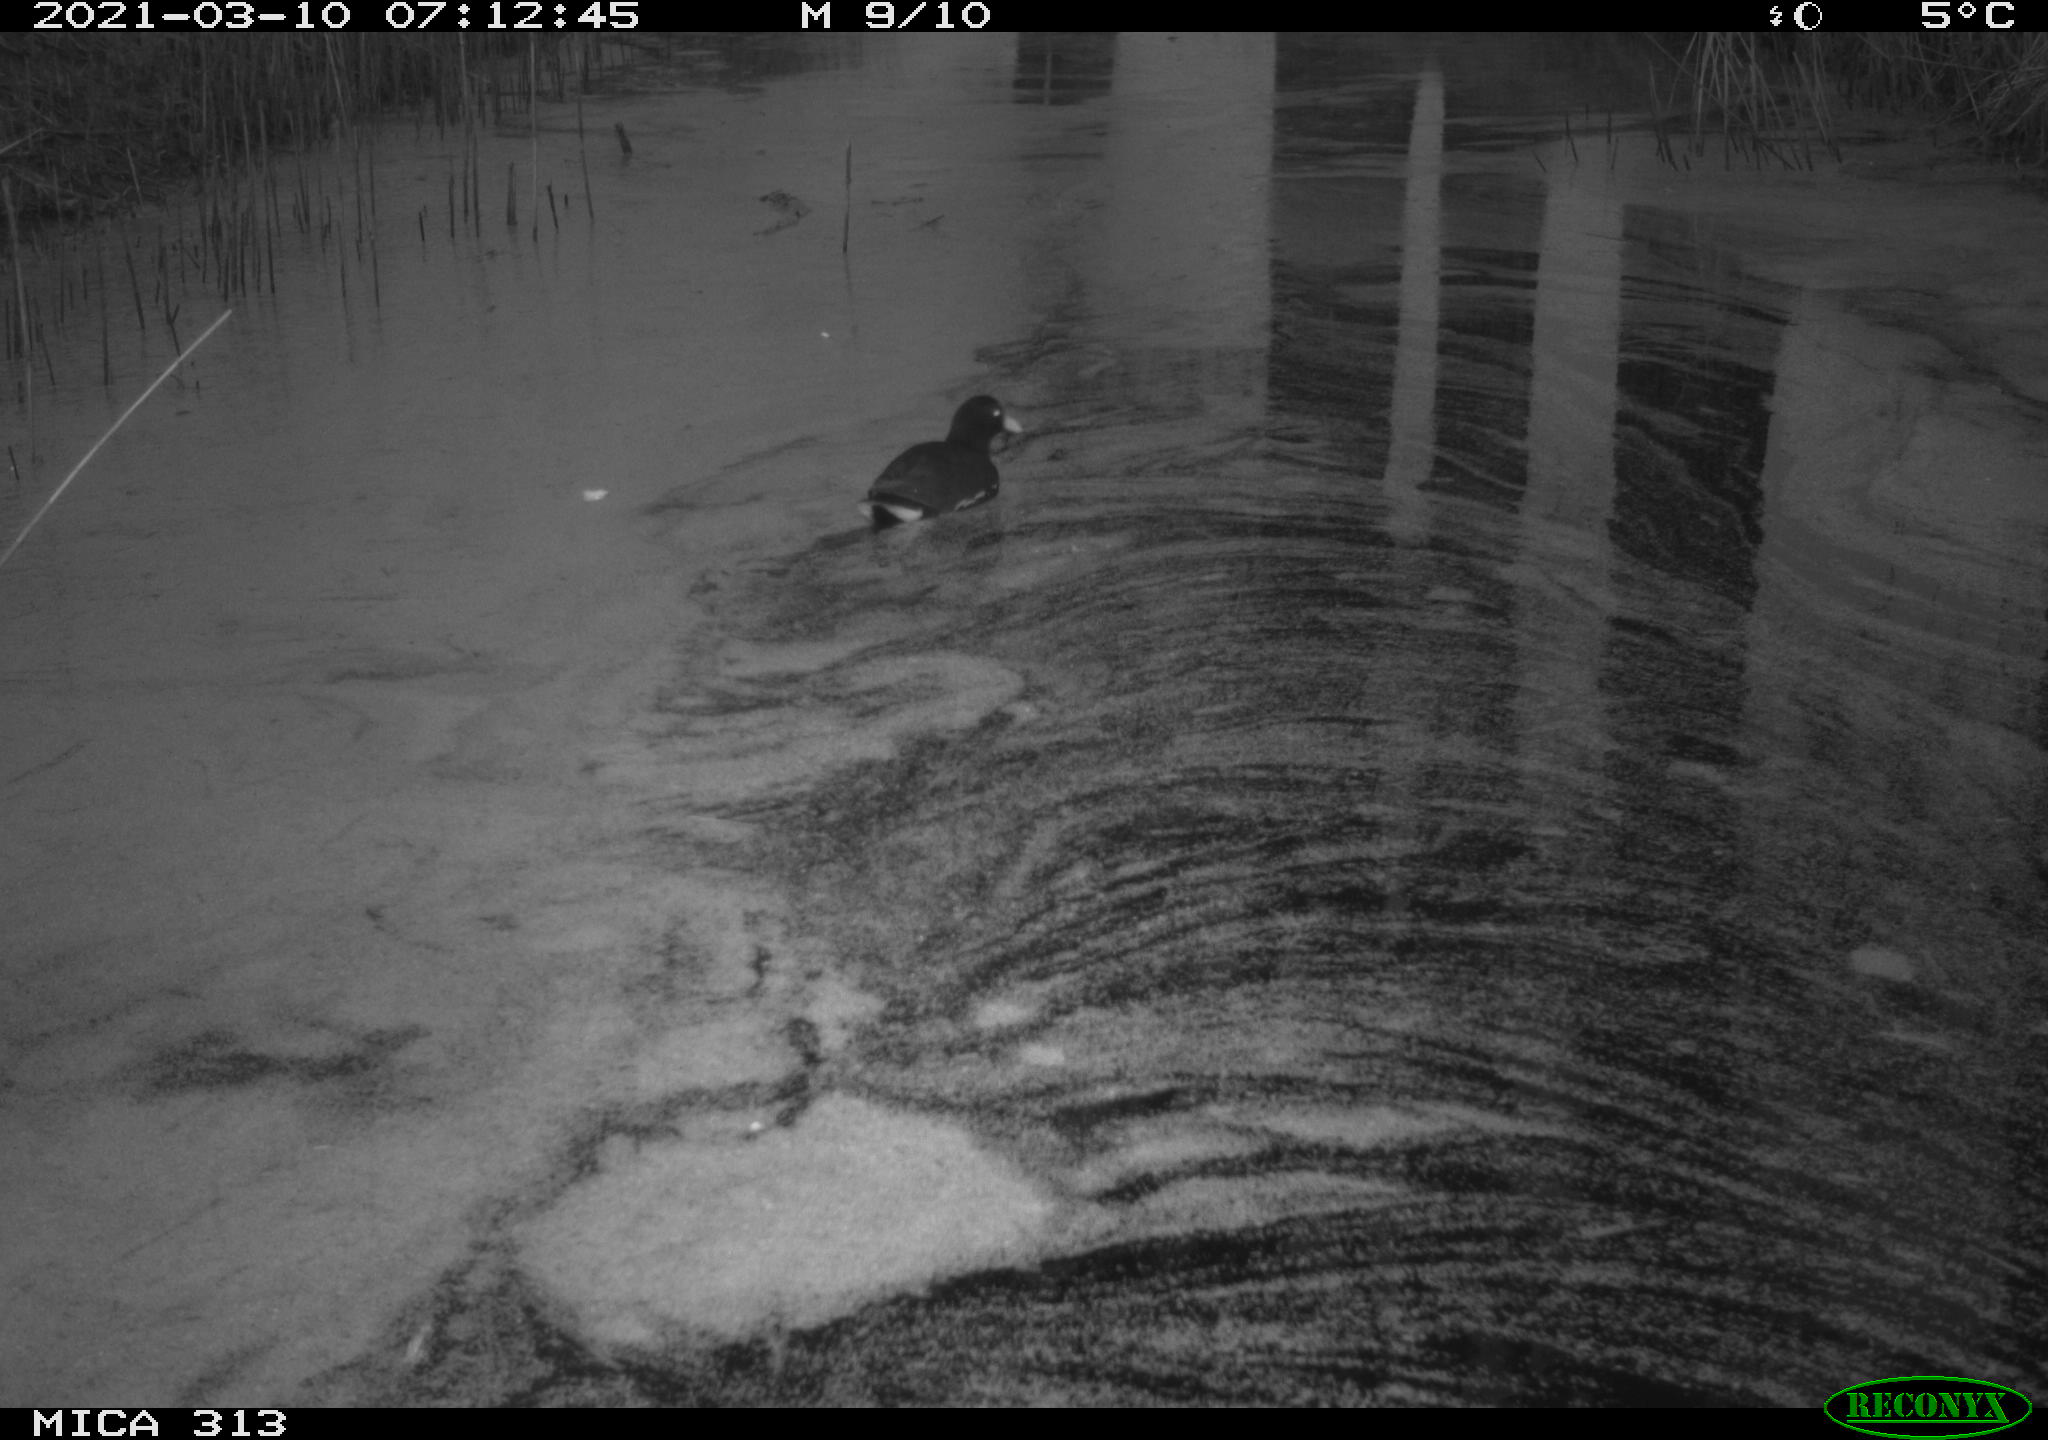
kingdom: Animalia
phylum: Chordata
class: Aves
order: Gruiformes
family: Rallidae
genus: Gallinula
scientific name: Gallinula chloropus
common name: Common moorhen
